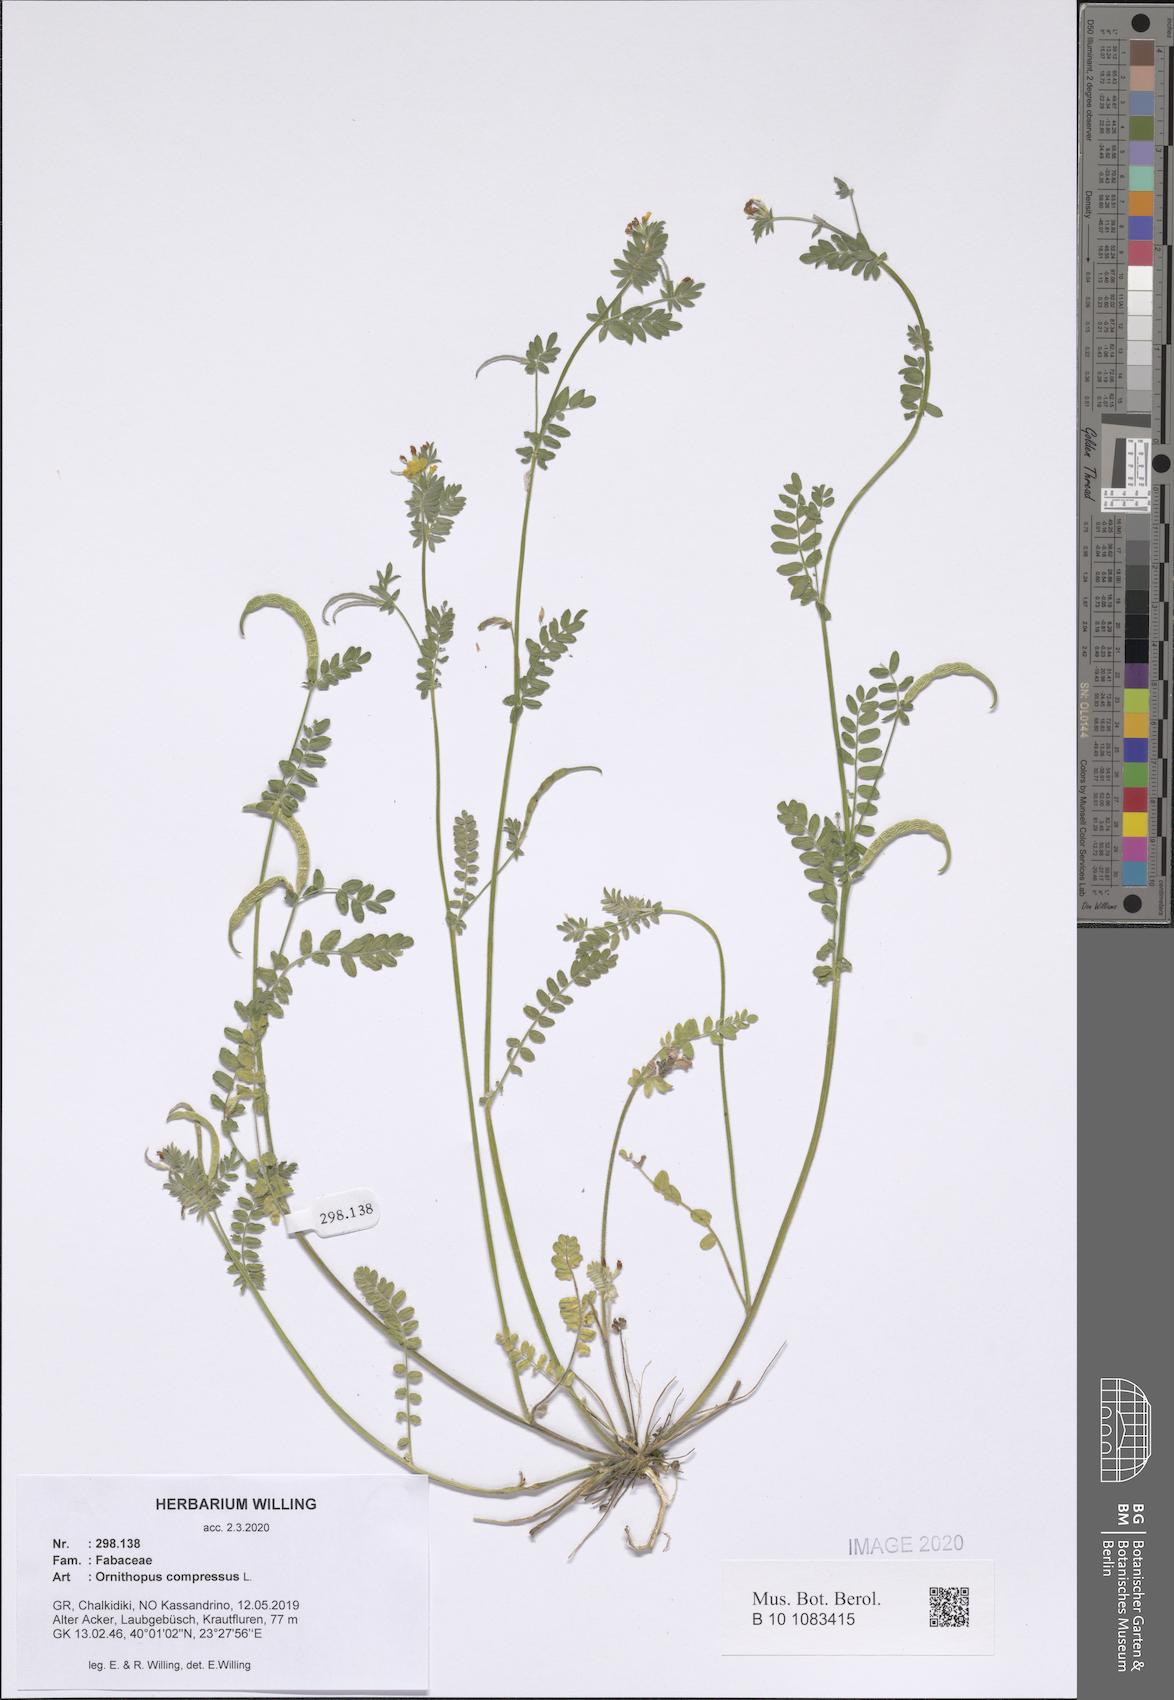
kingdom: Plantae
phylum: Tracheophyta
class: Magnoliopsida
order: Fabales
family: Fabaceae
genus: Ornithopus
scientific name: Ornithopus compressus
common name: Yellow serradella
